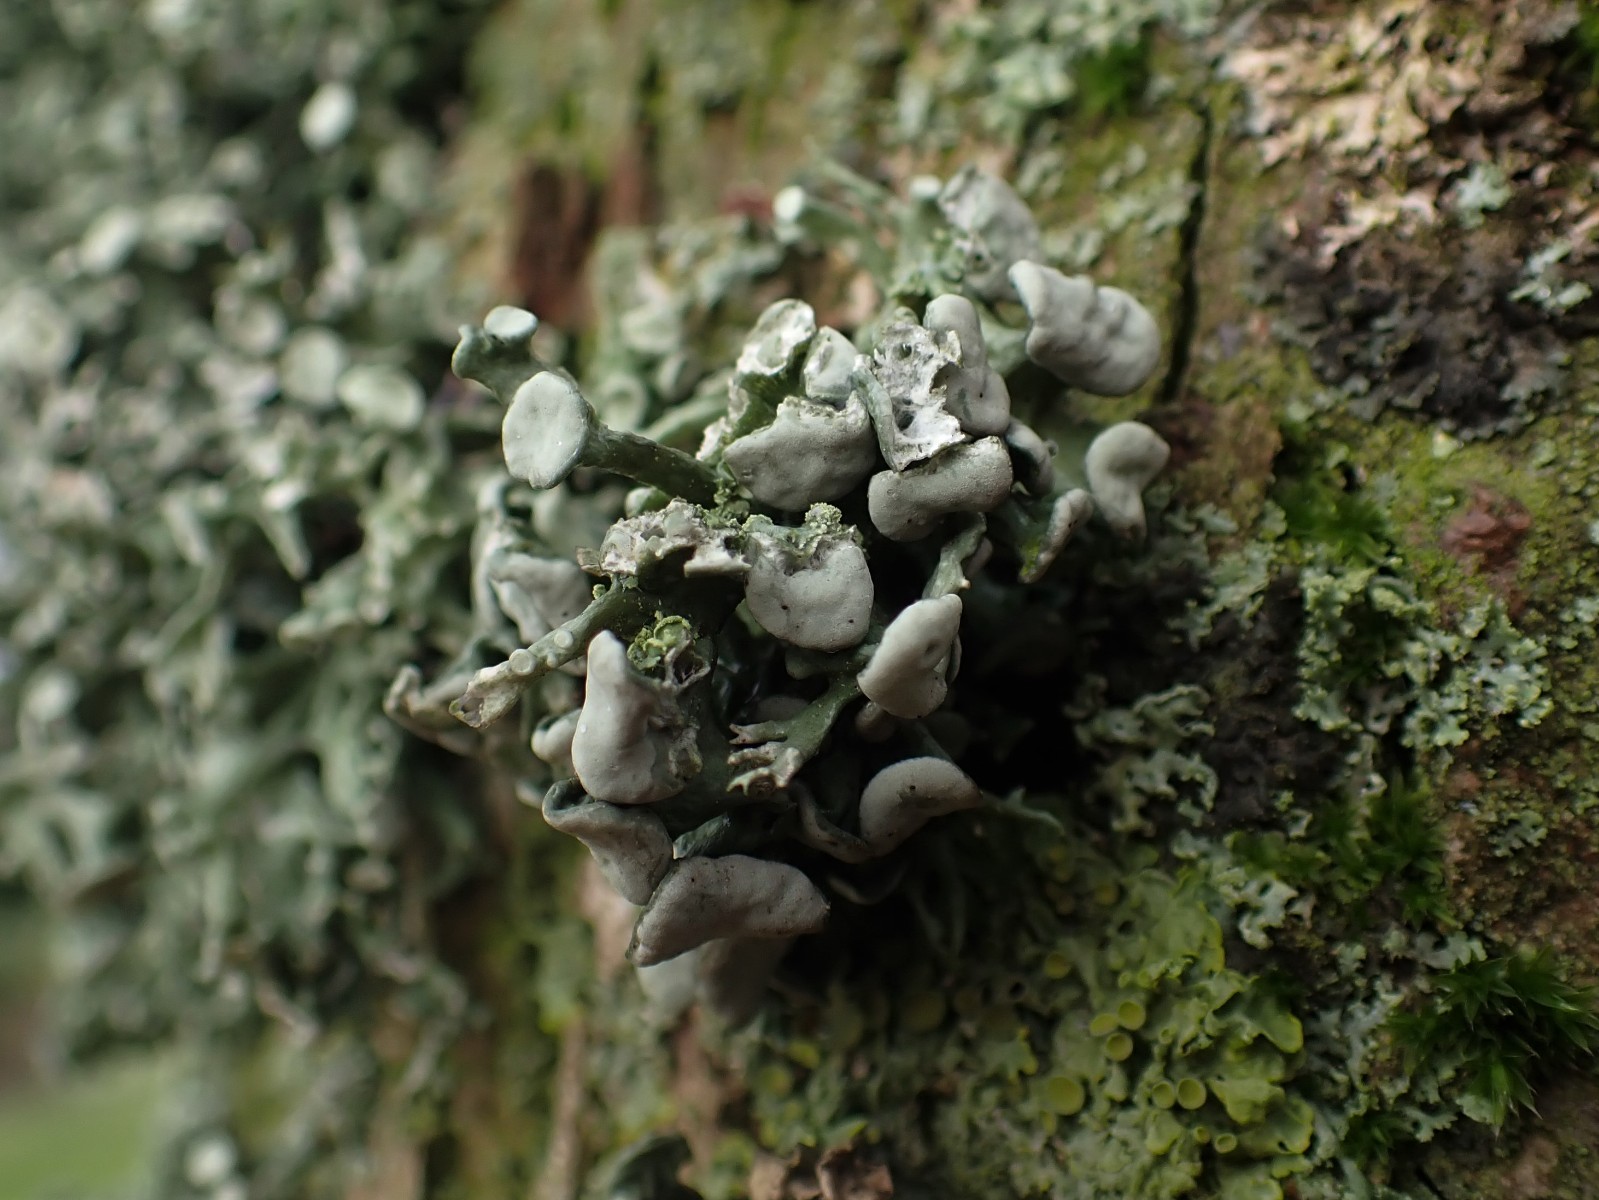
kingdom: Fungi
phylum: Ascomycota
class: Lecanoromycetes
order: Lecanorales
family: Ramalinaceae
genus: Ramalina
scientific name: Ramalina fastigiata
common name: tue-grenlav
